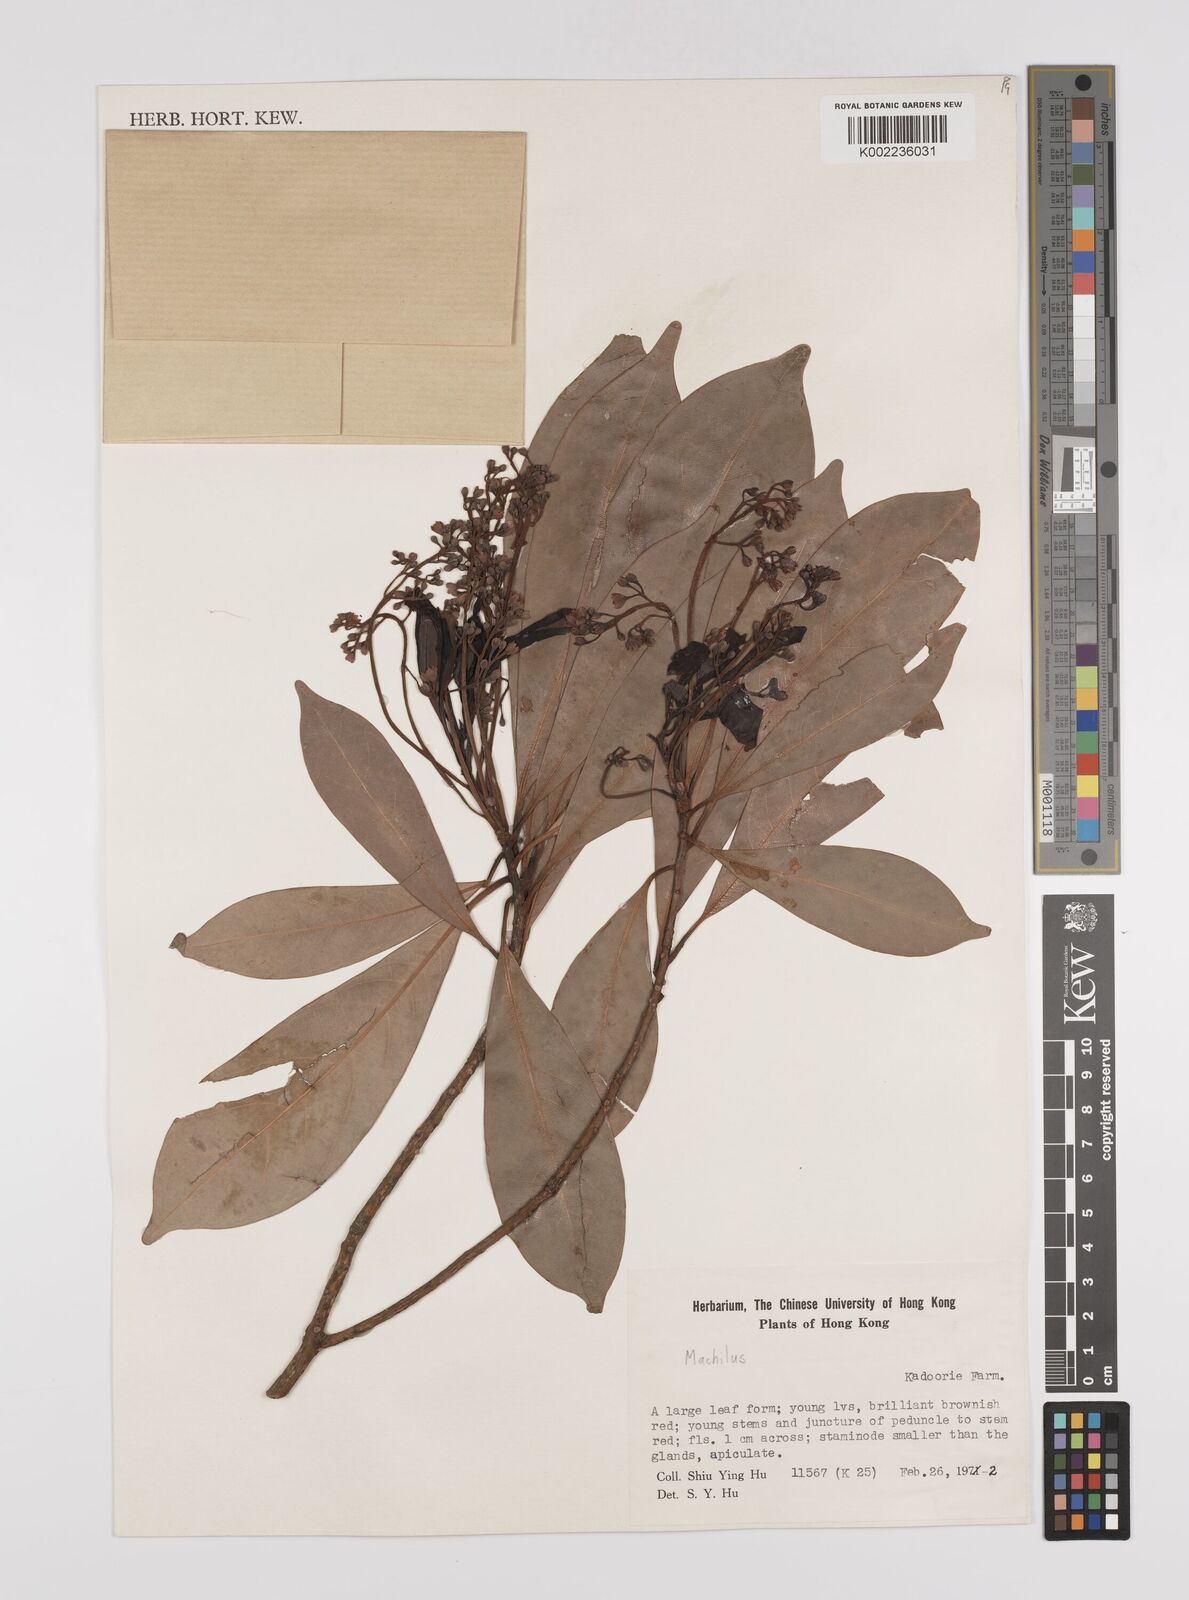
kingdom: Plantae
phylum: Tracheophyta
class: Magnoliopsida
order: Laurales
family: Lauraceae
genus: Persea
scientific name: Persea
